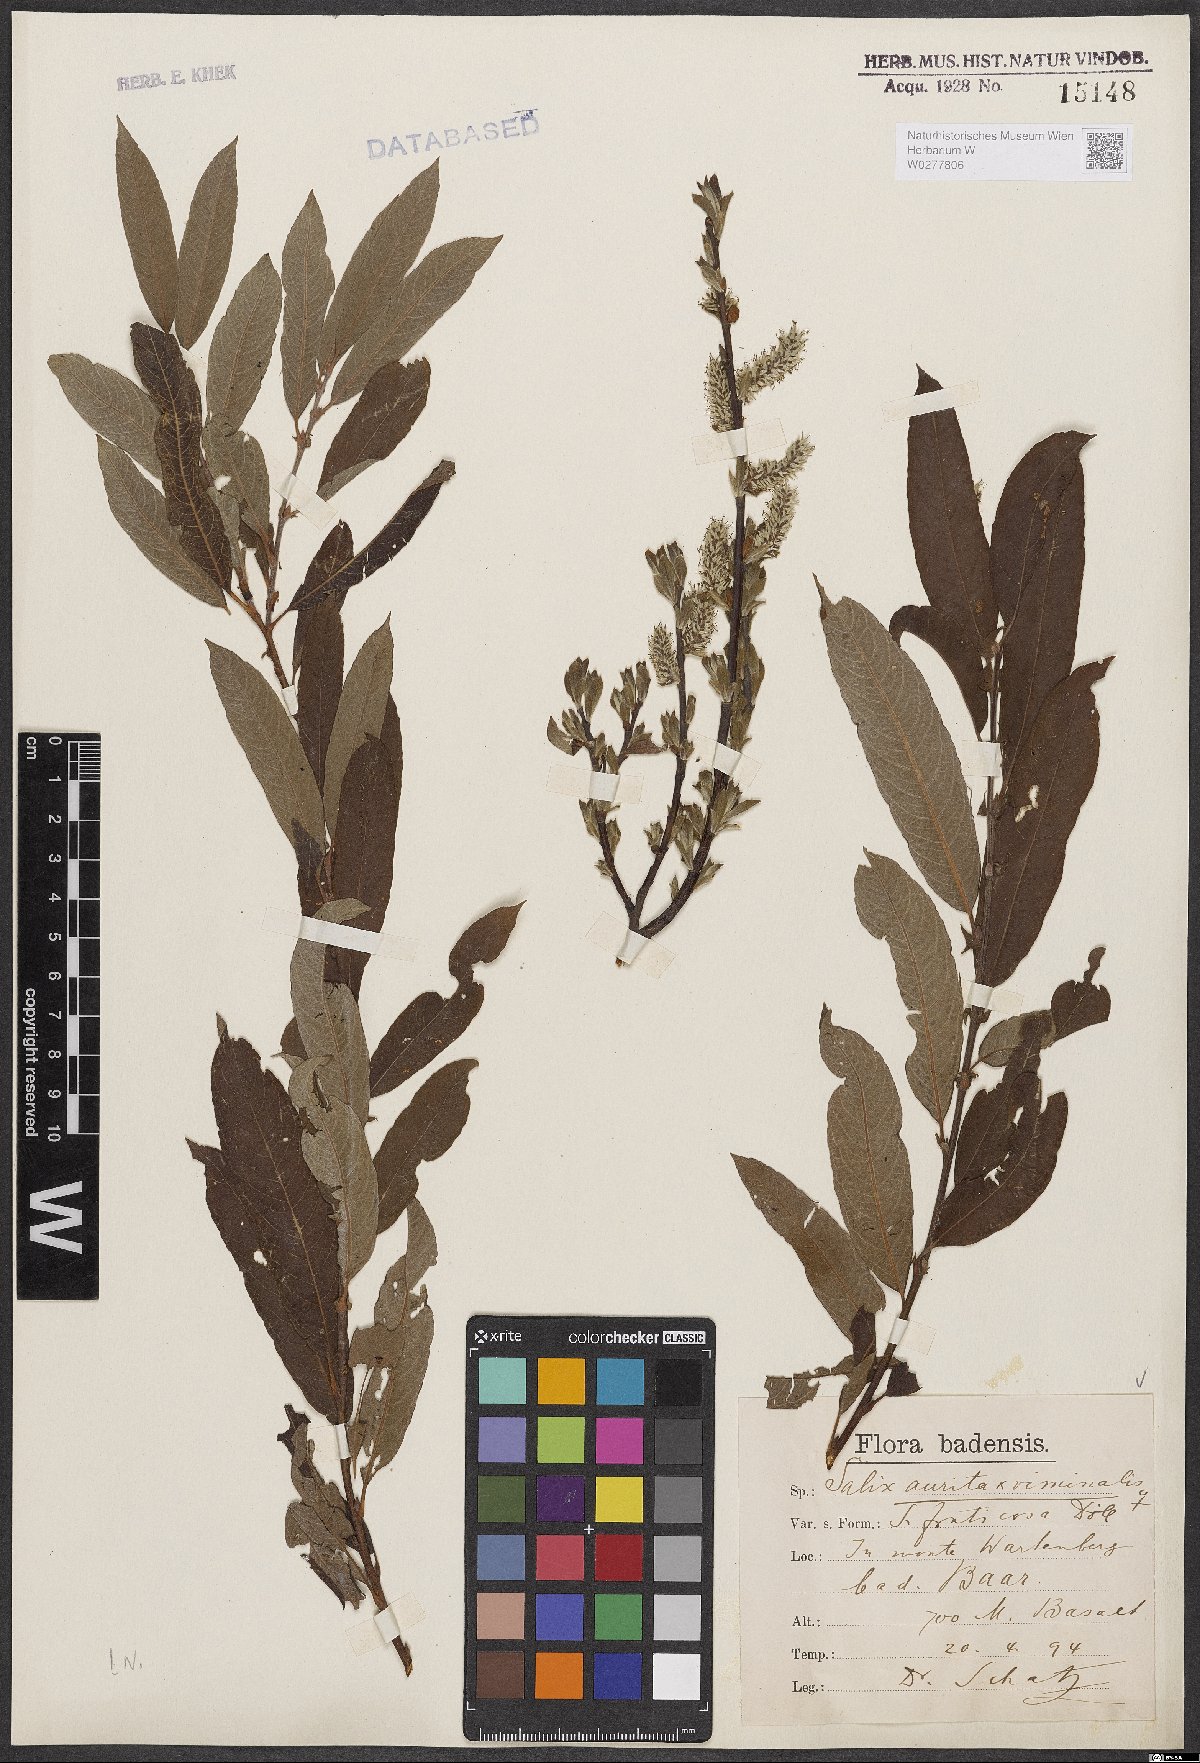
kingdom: Plantae
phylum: Tracheophyta
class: Magnoliopsida
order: Malpighiales
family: Salicaceae
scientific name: Salicaceae
